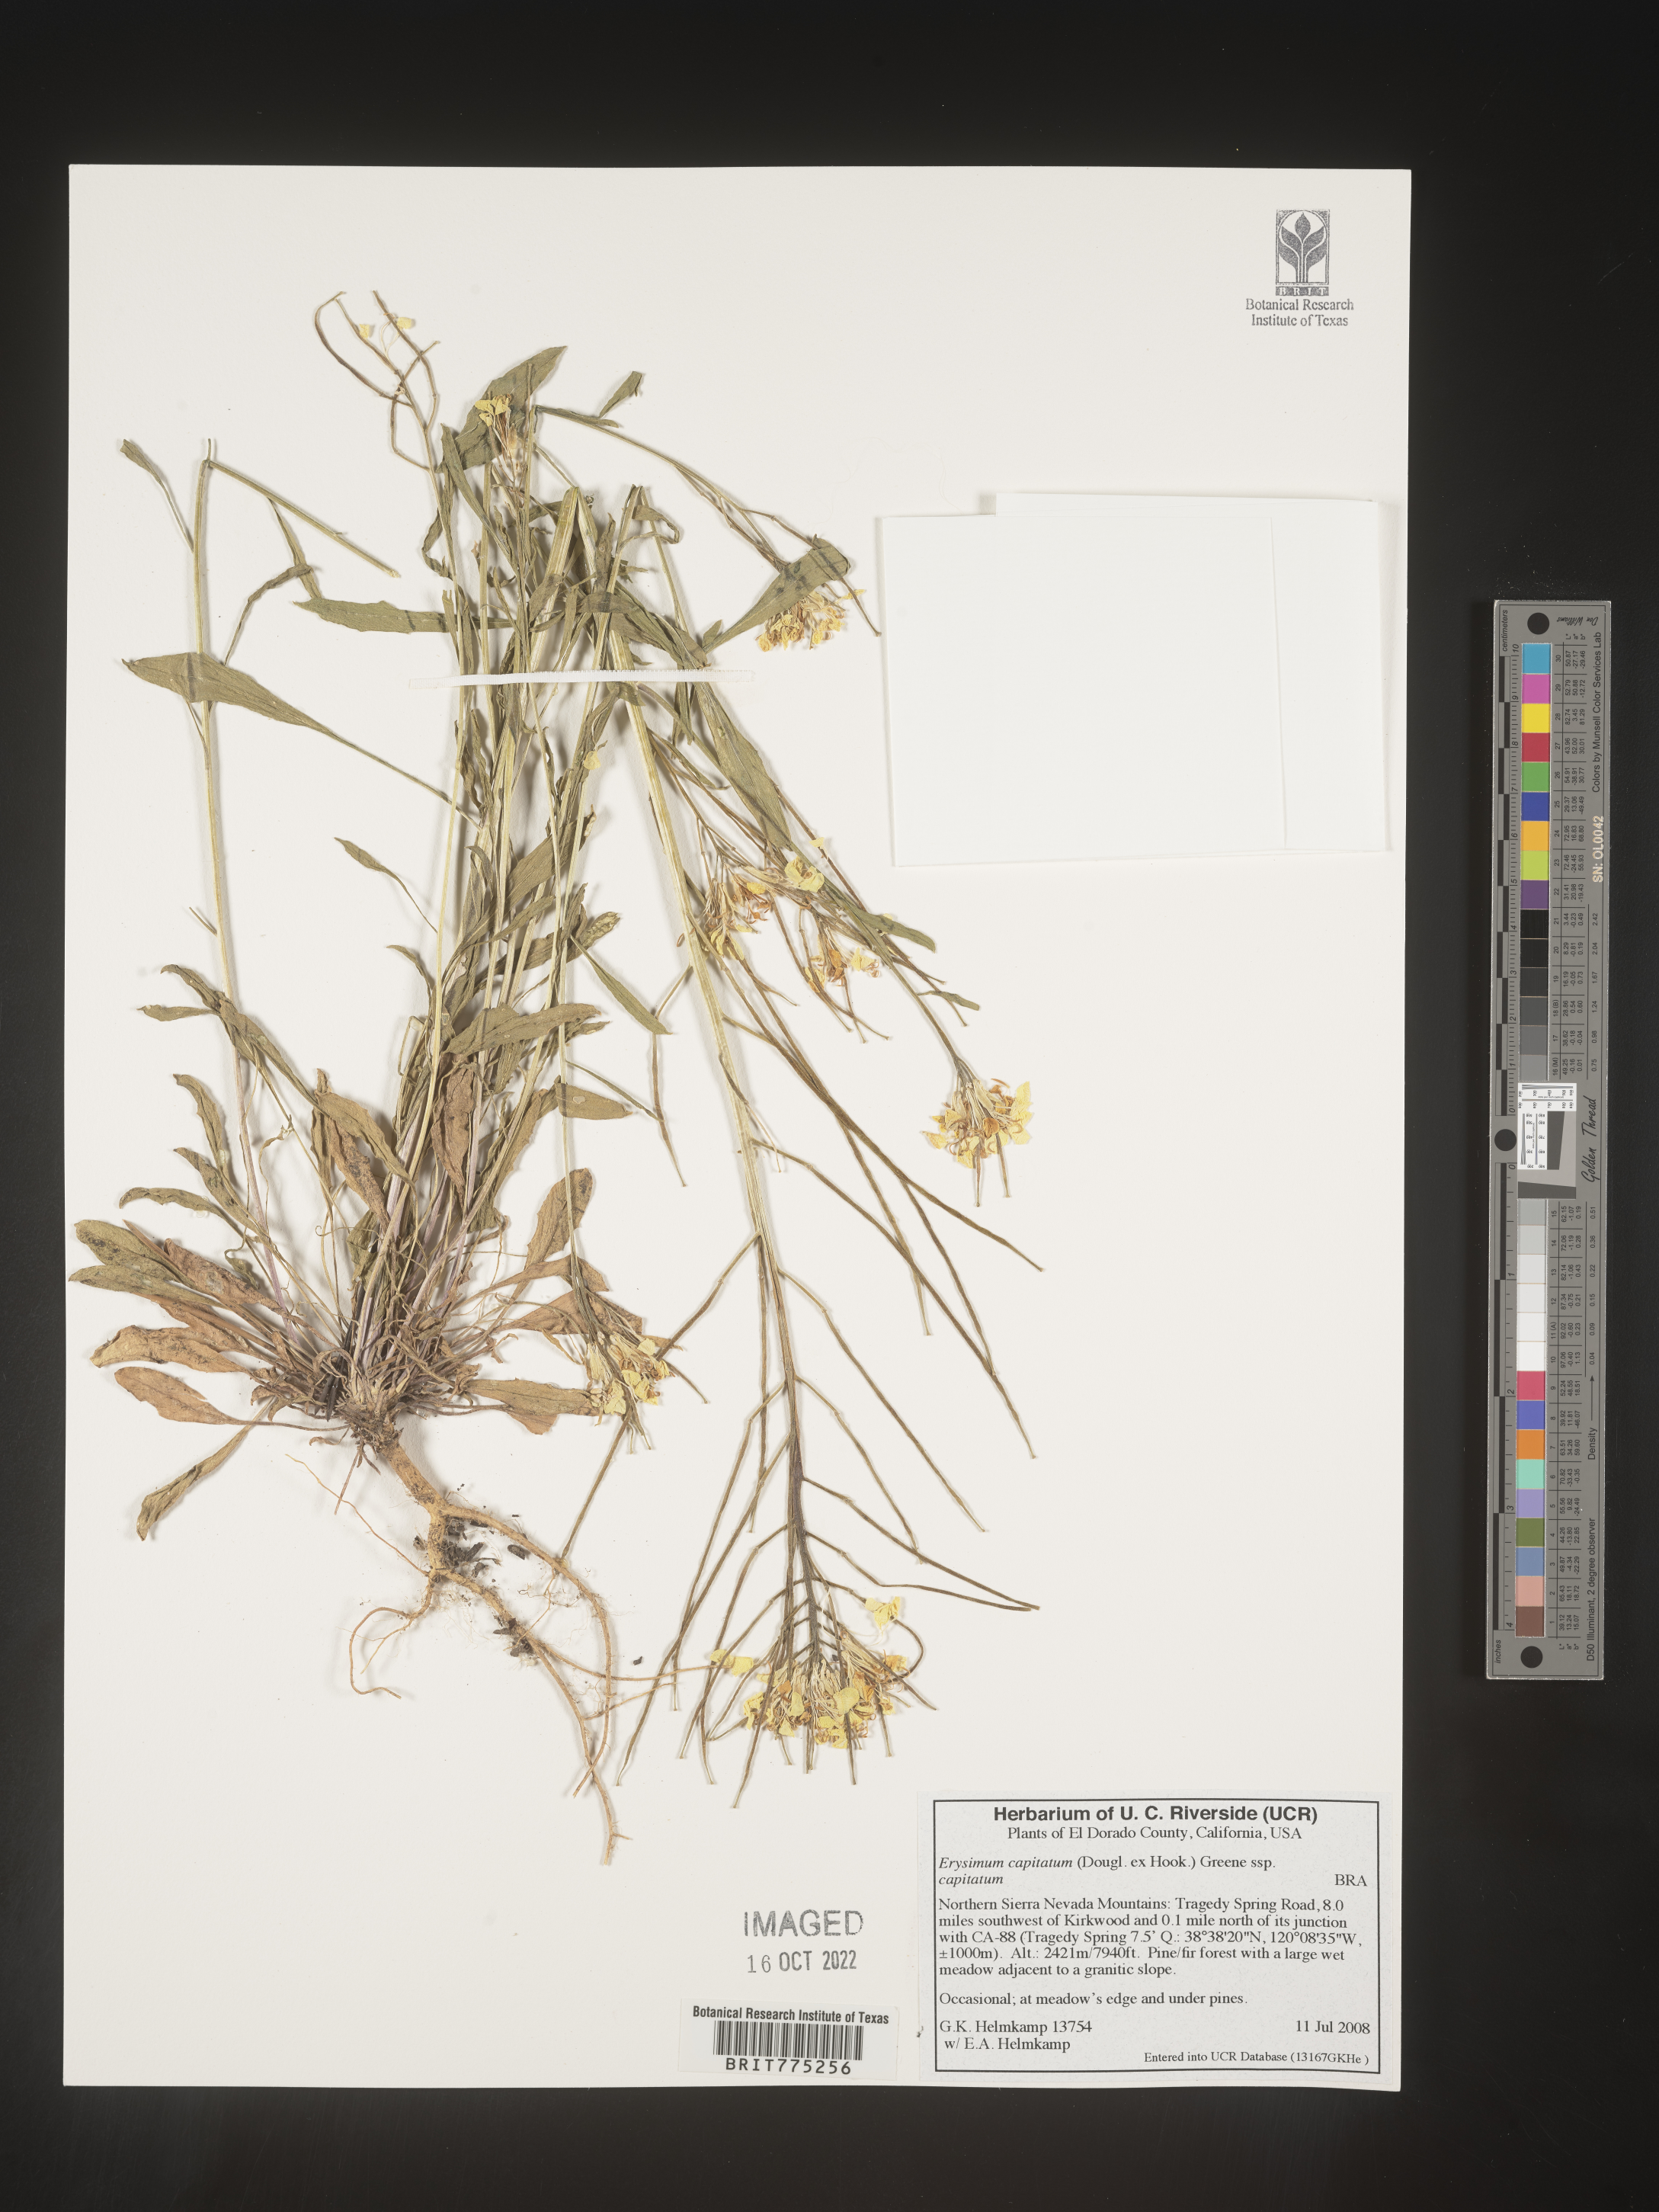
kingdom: Plantae
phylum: Tracheophyta
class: Magnoliopsida
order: Brassicales
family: Brassicaceae
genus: Erysimum
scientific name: Erysimum capitatum
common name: Western wallflower
